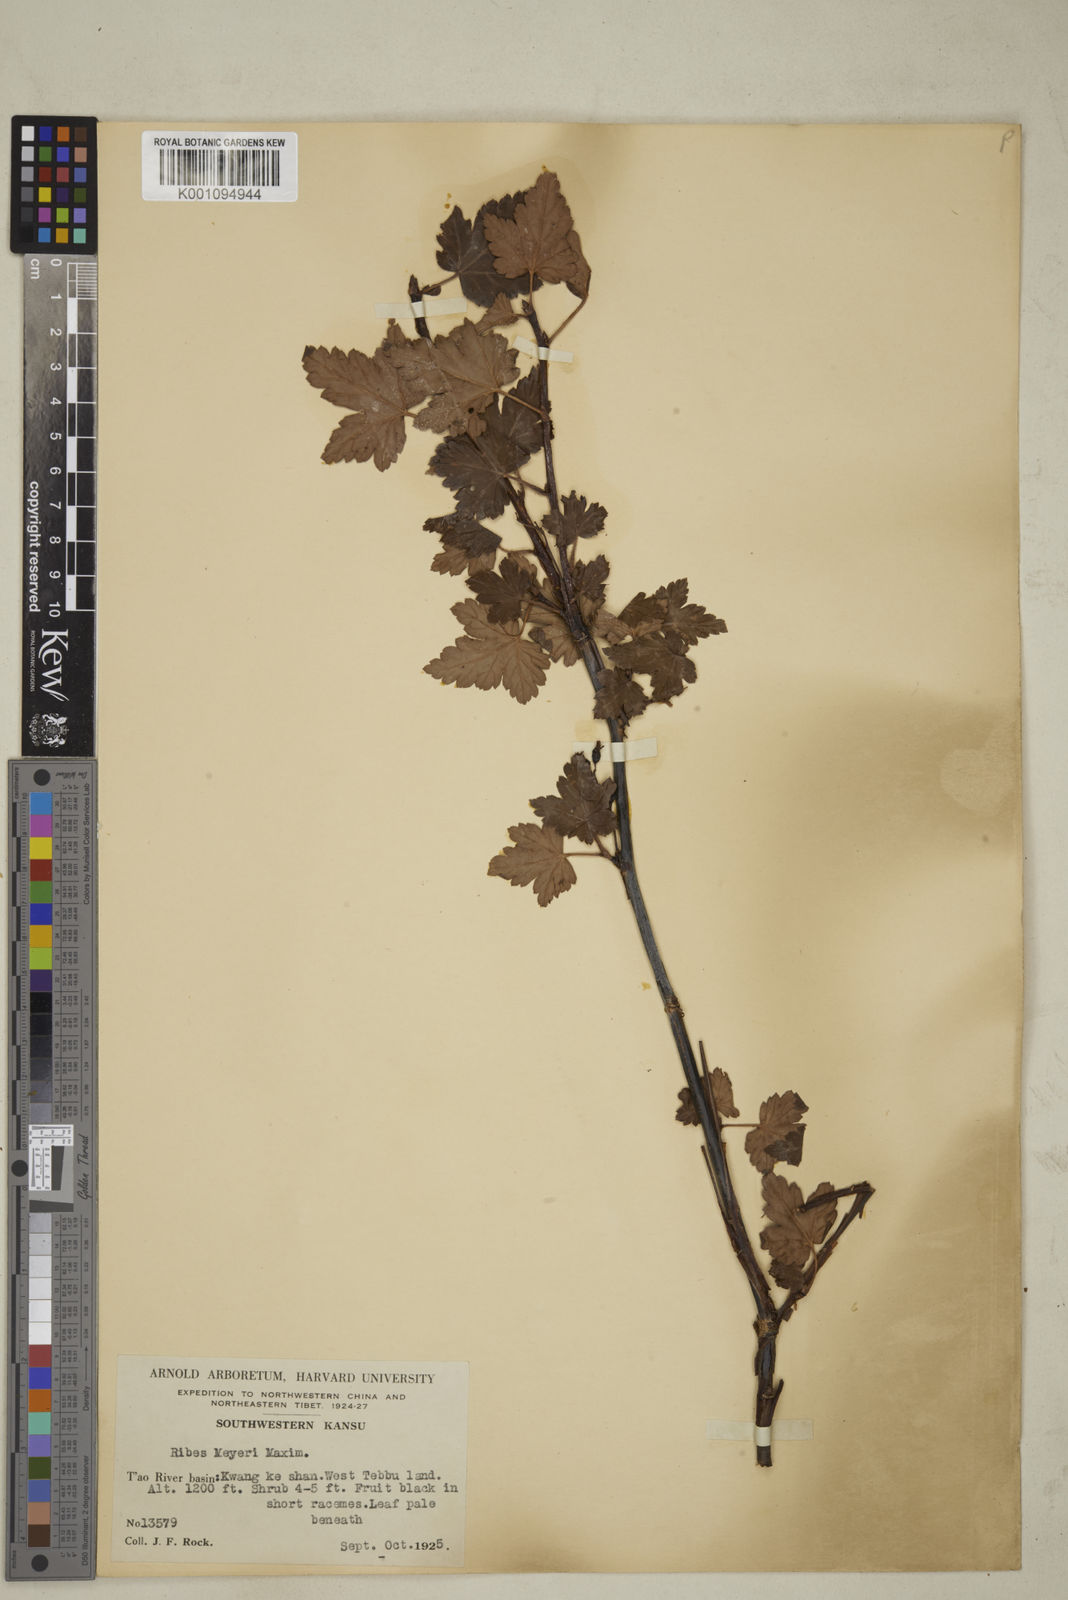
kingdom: Plantae
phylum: Tracheophyta
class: Magnoliopsida
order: Saxifragales
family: Grossulariaceae
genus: Ribes
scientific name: Ribes meyeri
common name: Meyer's currant
